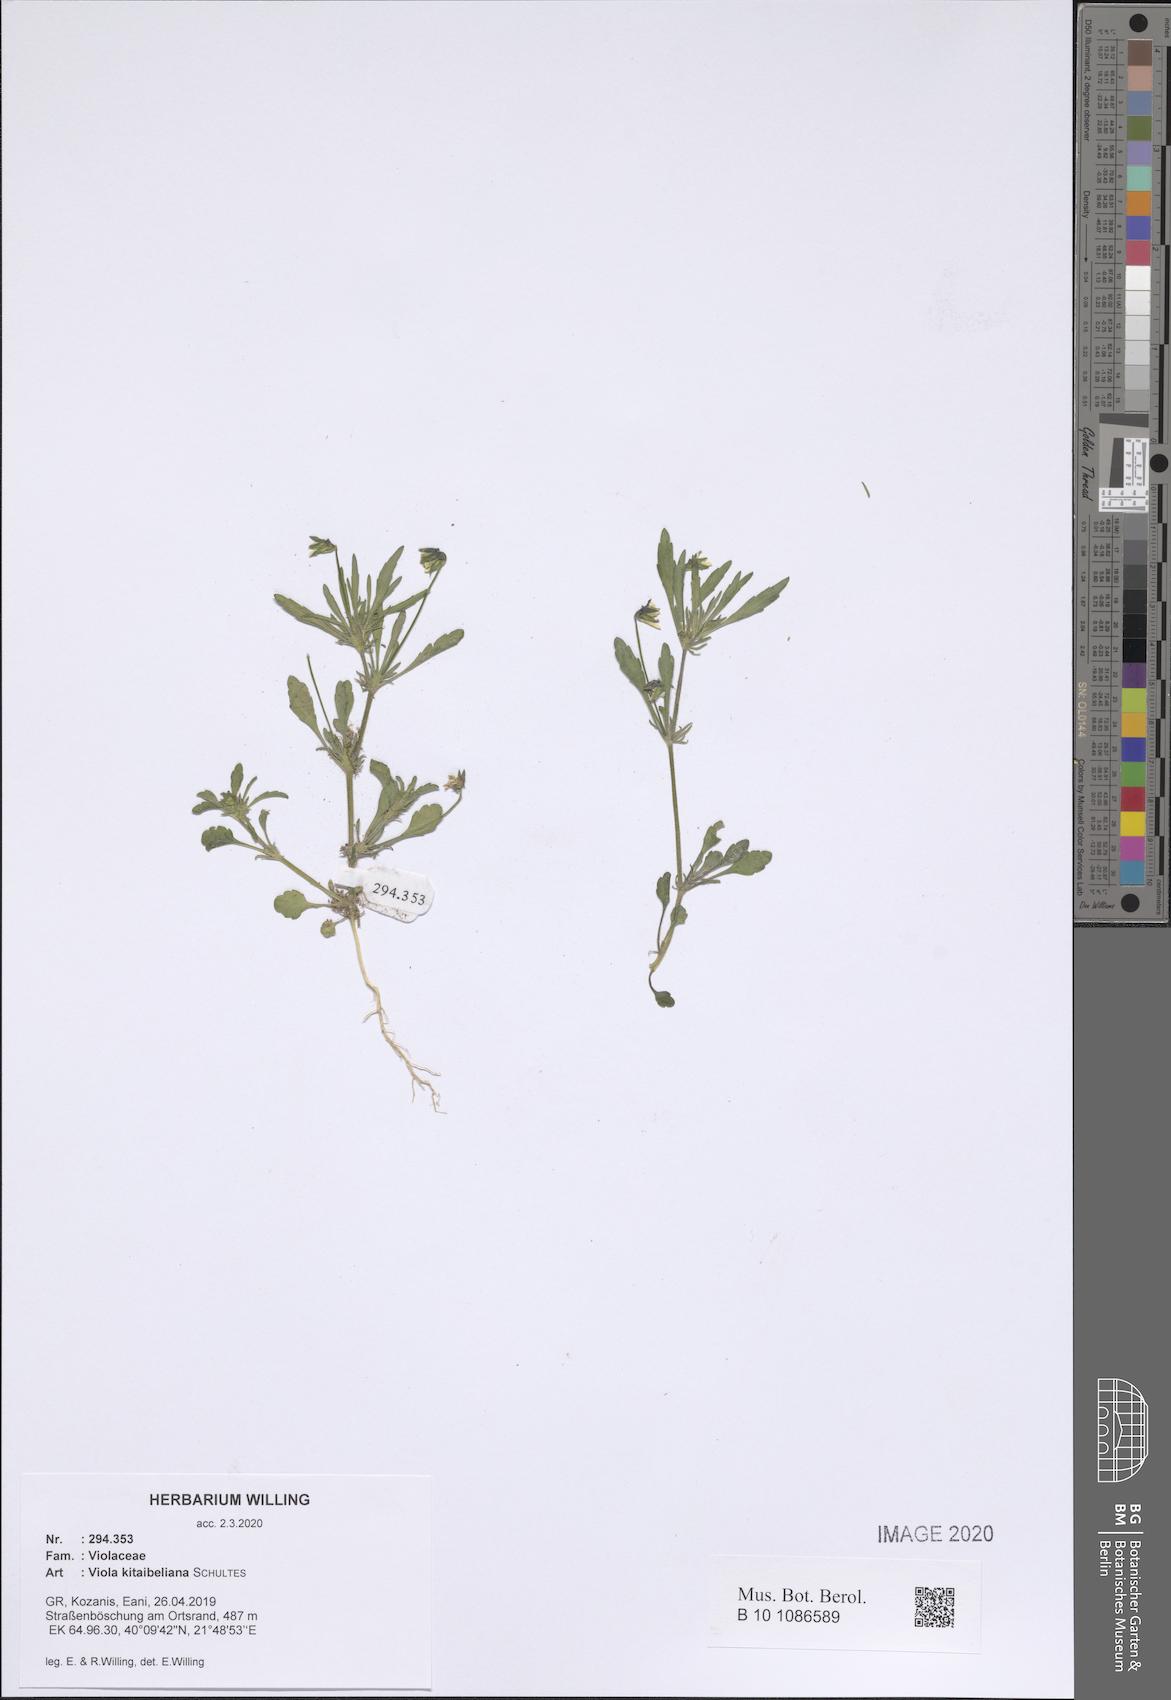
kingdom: Plantae
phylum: Tracheophyta
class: Magnoliopsida
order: Malpighiales
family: Violaceae
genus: Viola
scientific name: Viola kitaibeliana
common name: Dwarf pansy
